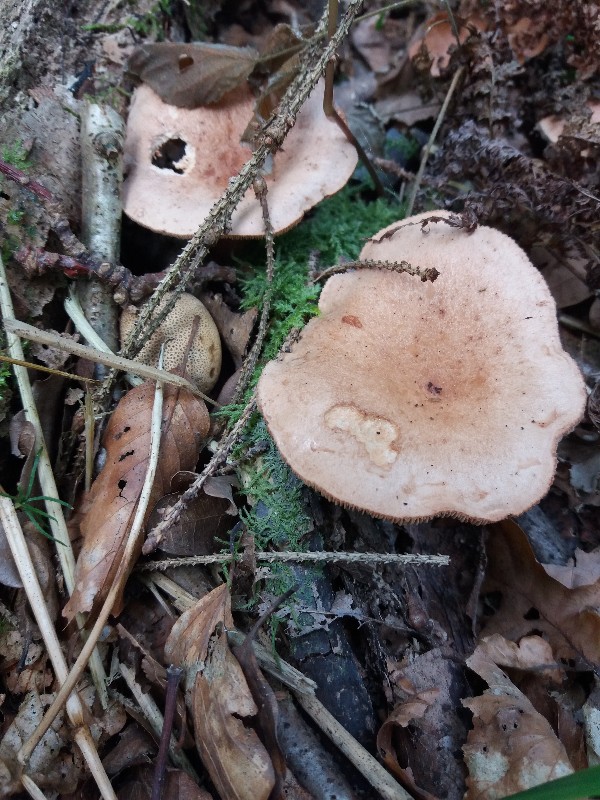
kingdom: Fungi
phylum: Basidiomycota
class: Agaricomycetes
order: Russulales
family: Russulaceae
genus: Lactarius
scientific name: Lactarius quietus
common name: ege-mælkehat
